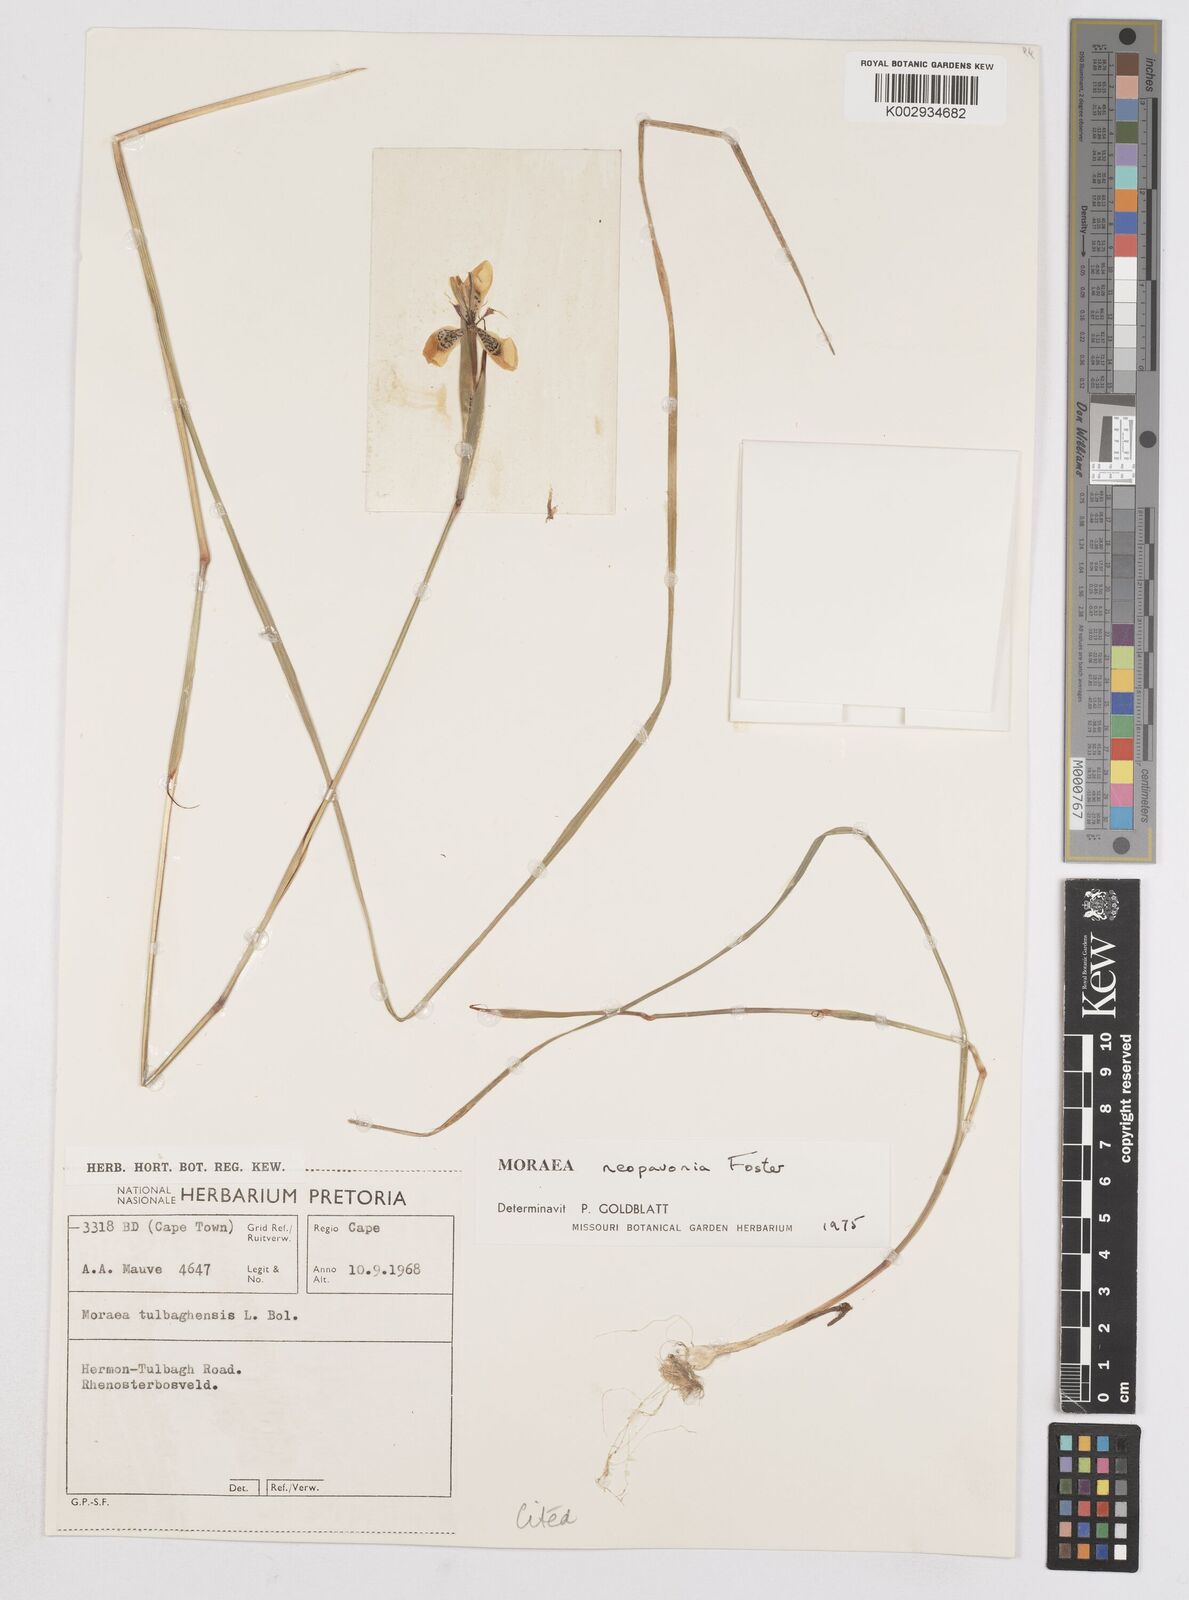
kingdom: Plantae
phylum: Tracheophyta
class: Liliopsida
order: Asparagales
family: Iridaceae
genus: Moraea
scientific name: Moraea tulbaghensis
